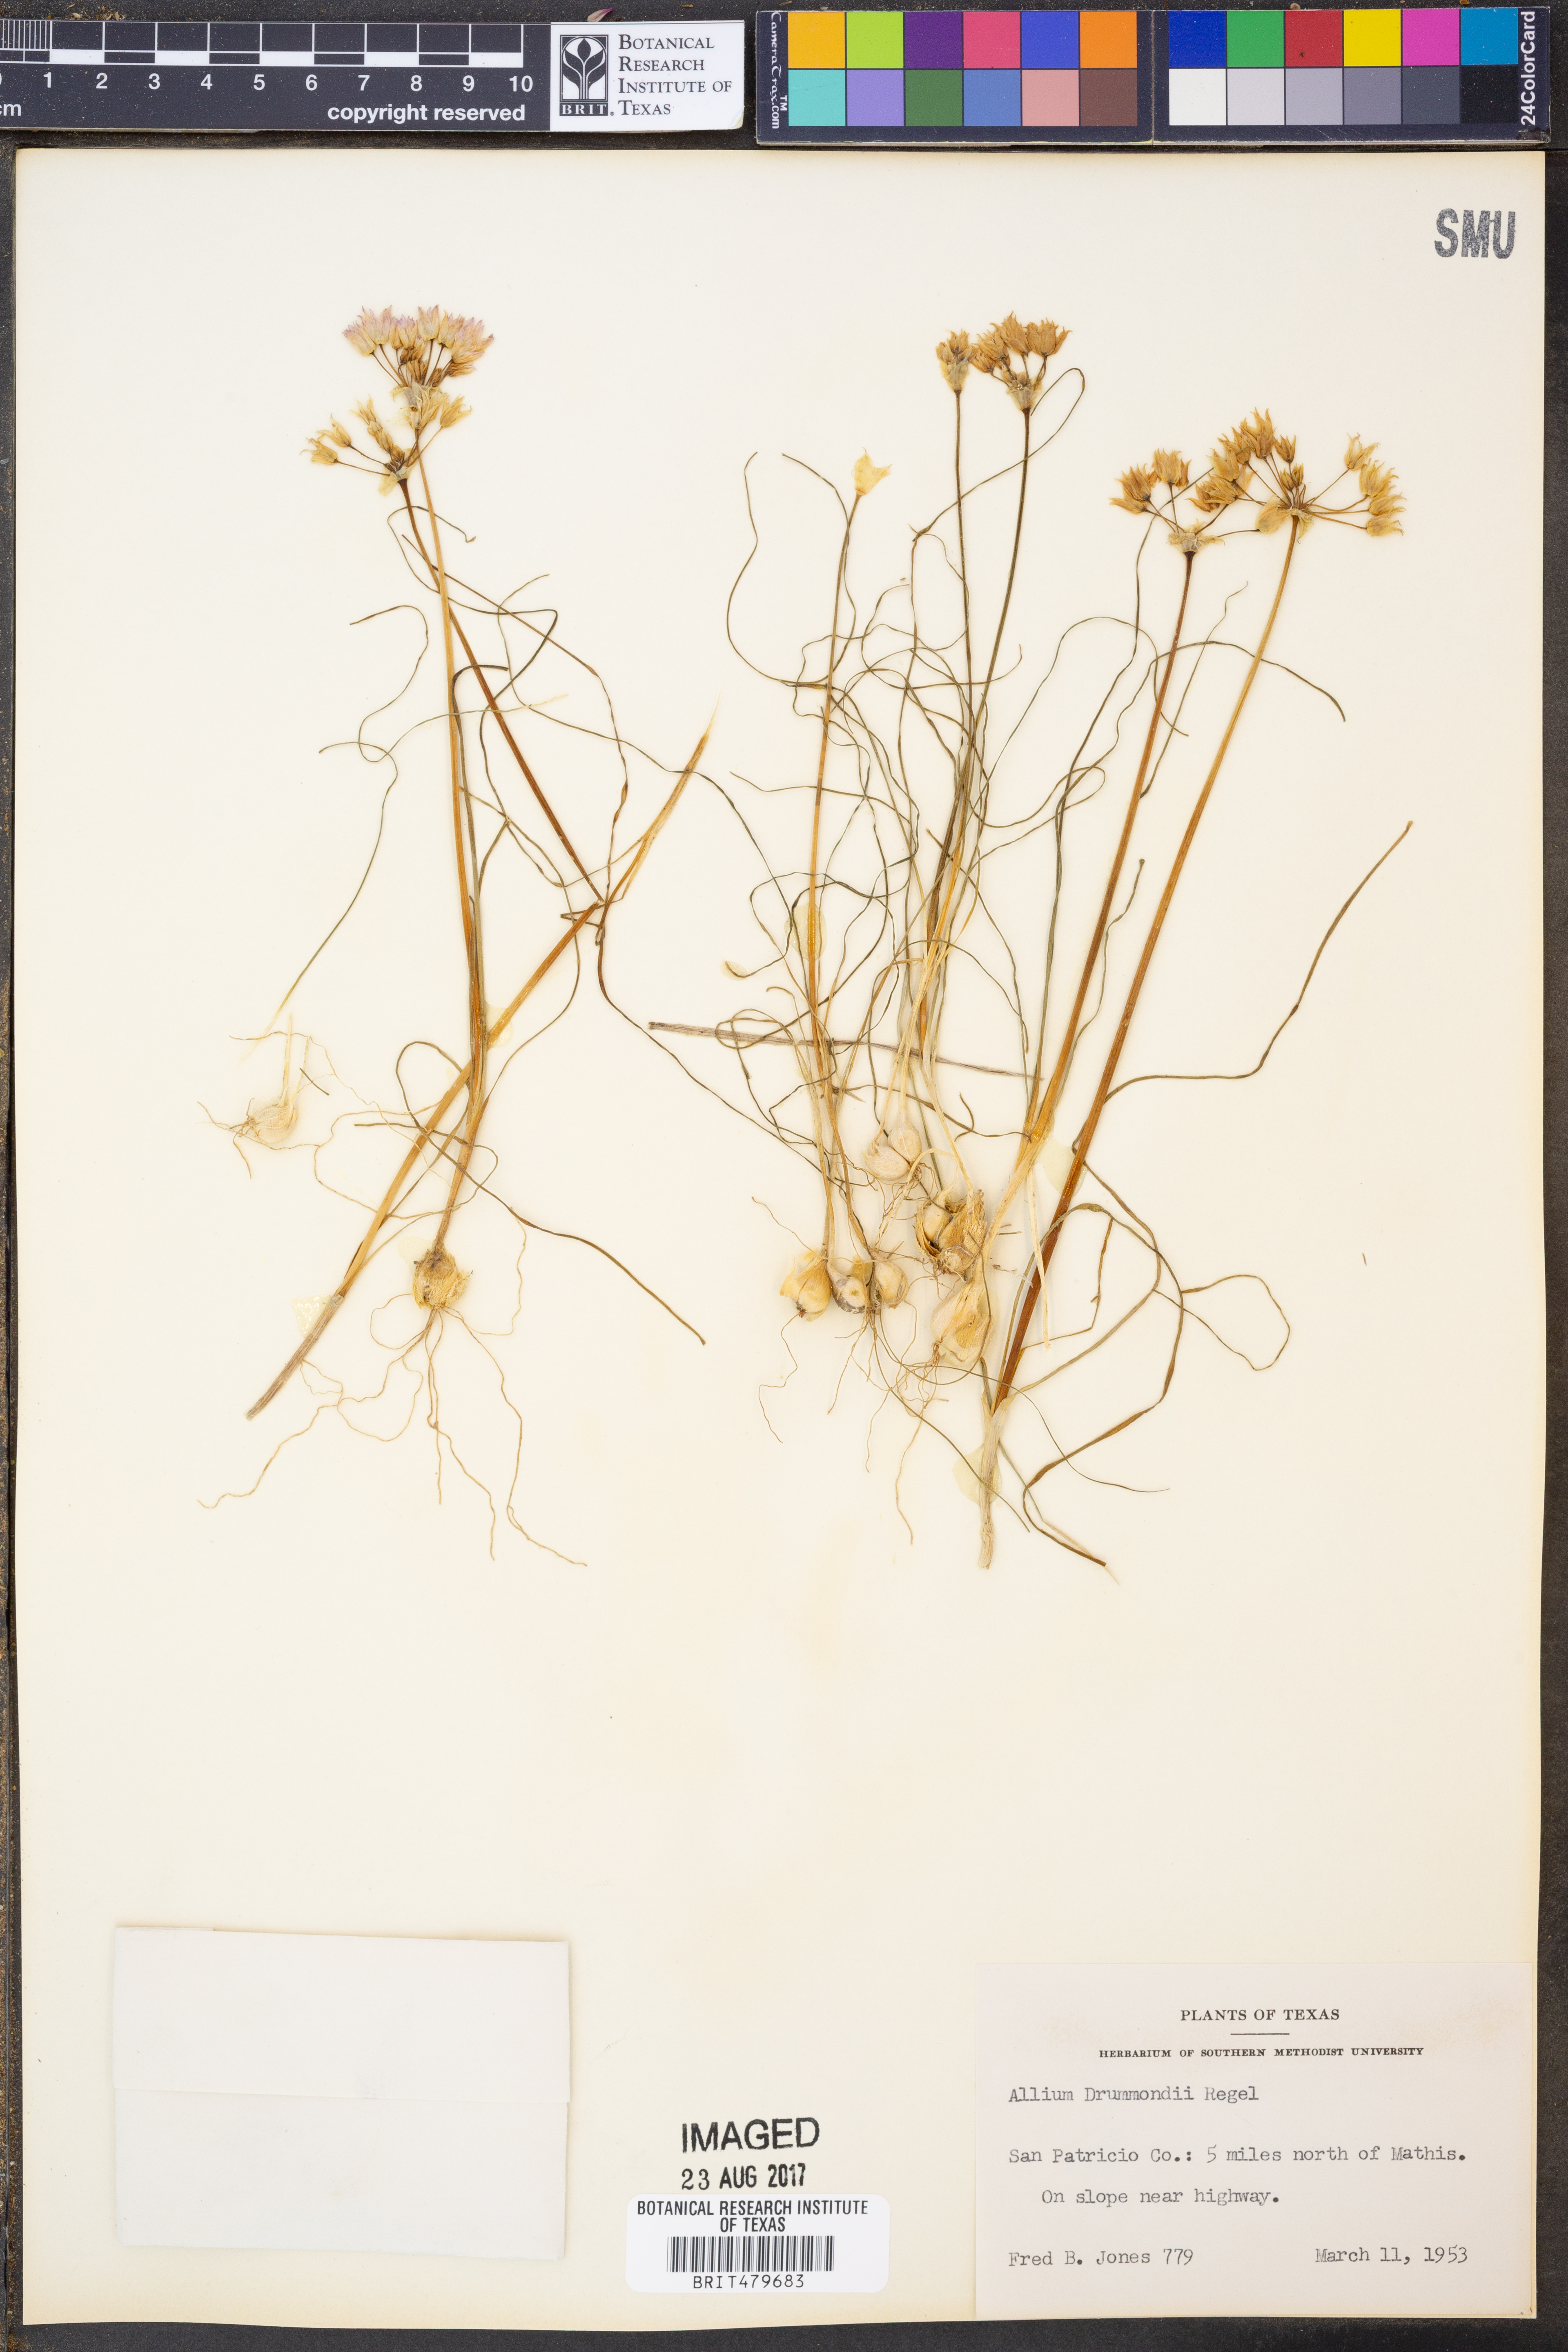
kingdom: Plantae
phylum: Tracheophyta
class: Liliopsida
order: Asparagales
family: Amaryllidaceae
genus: Allium
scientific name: Allium drummondii
